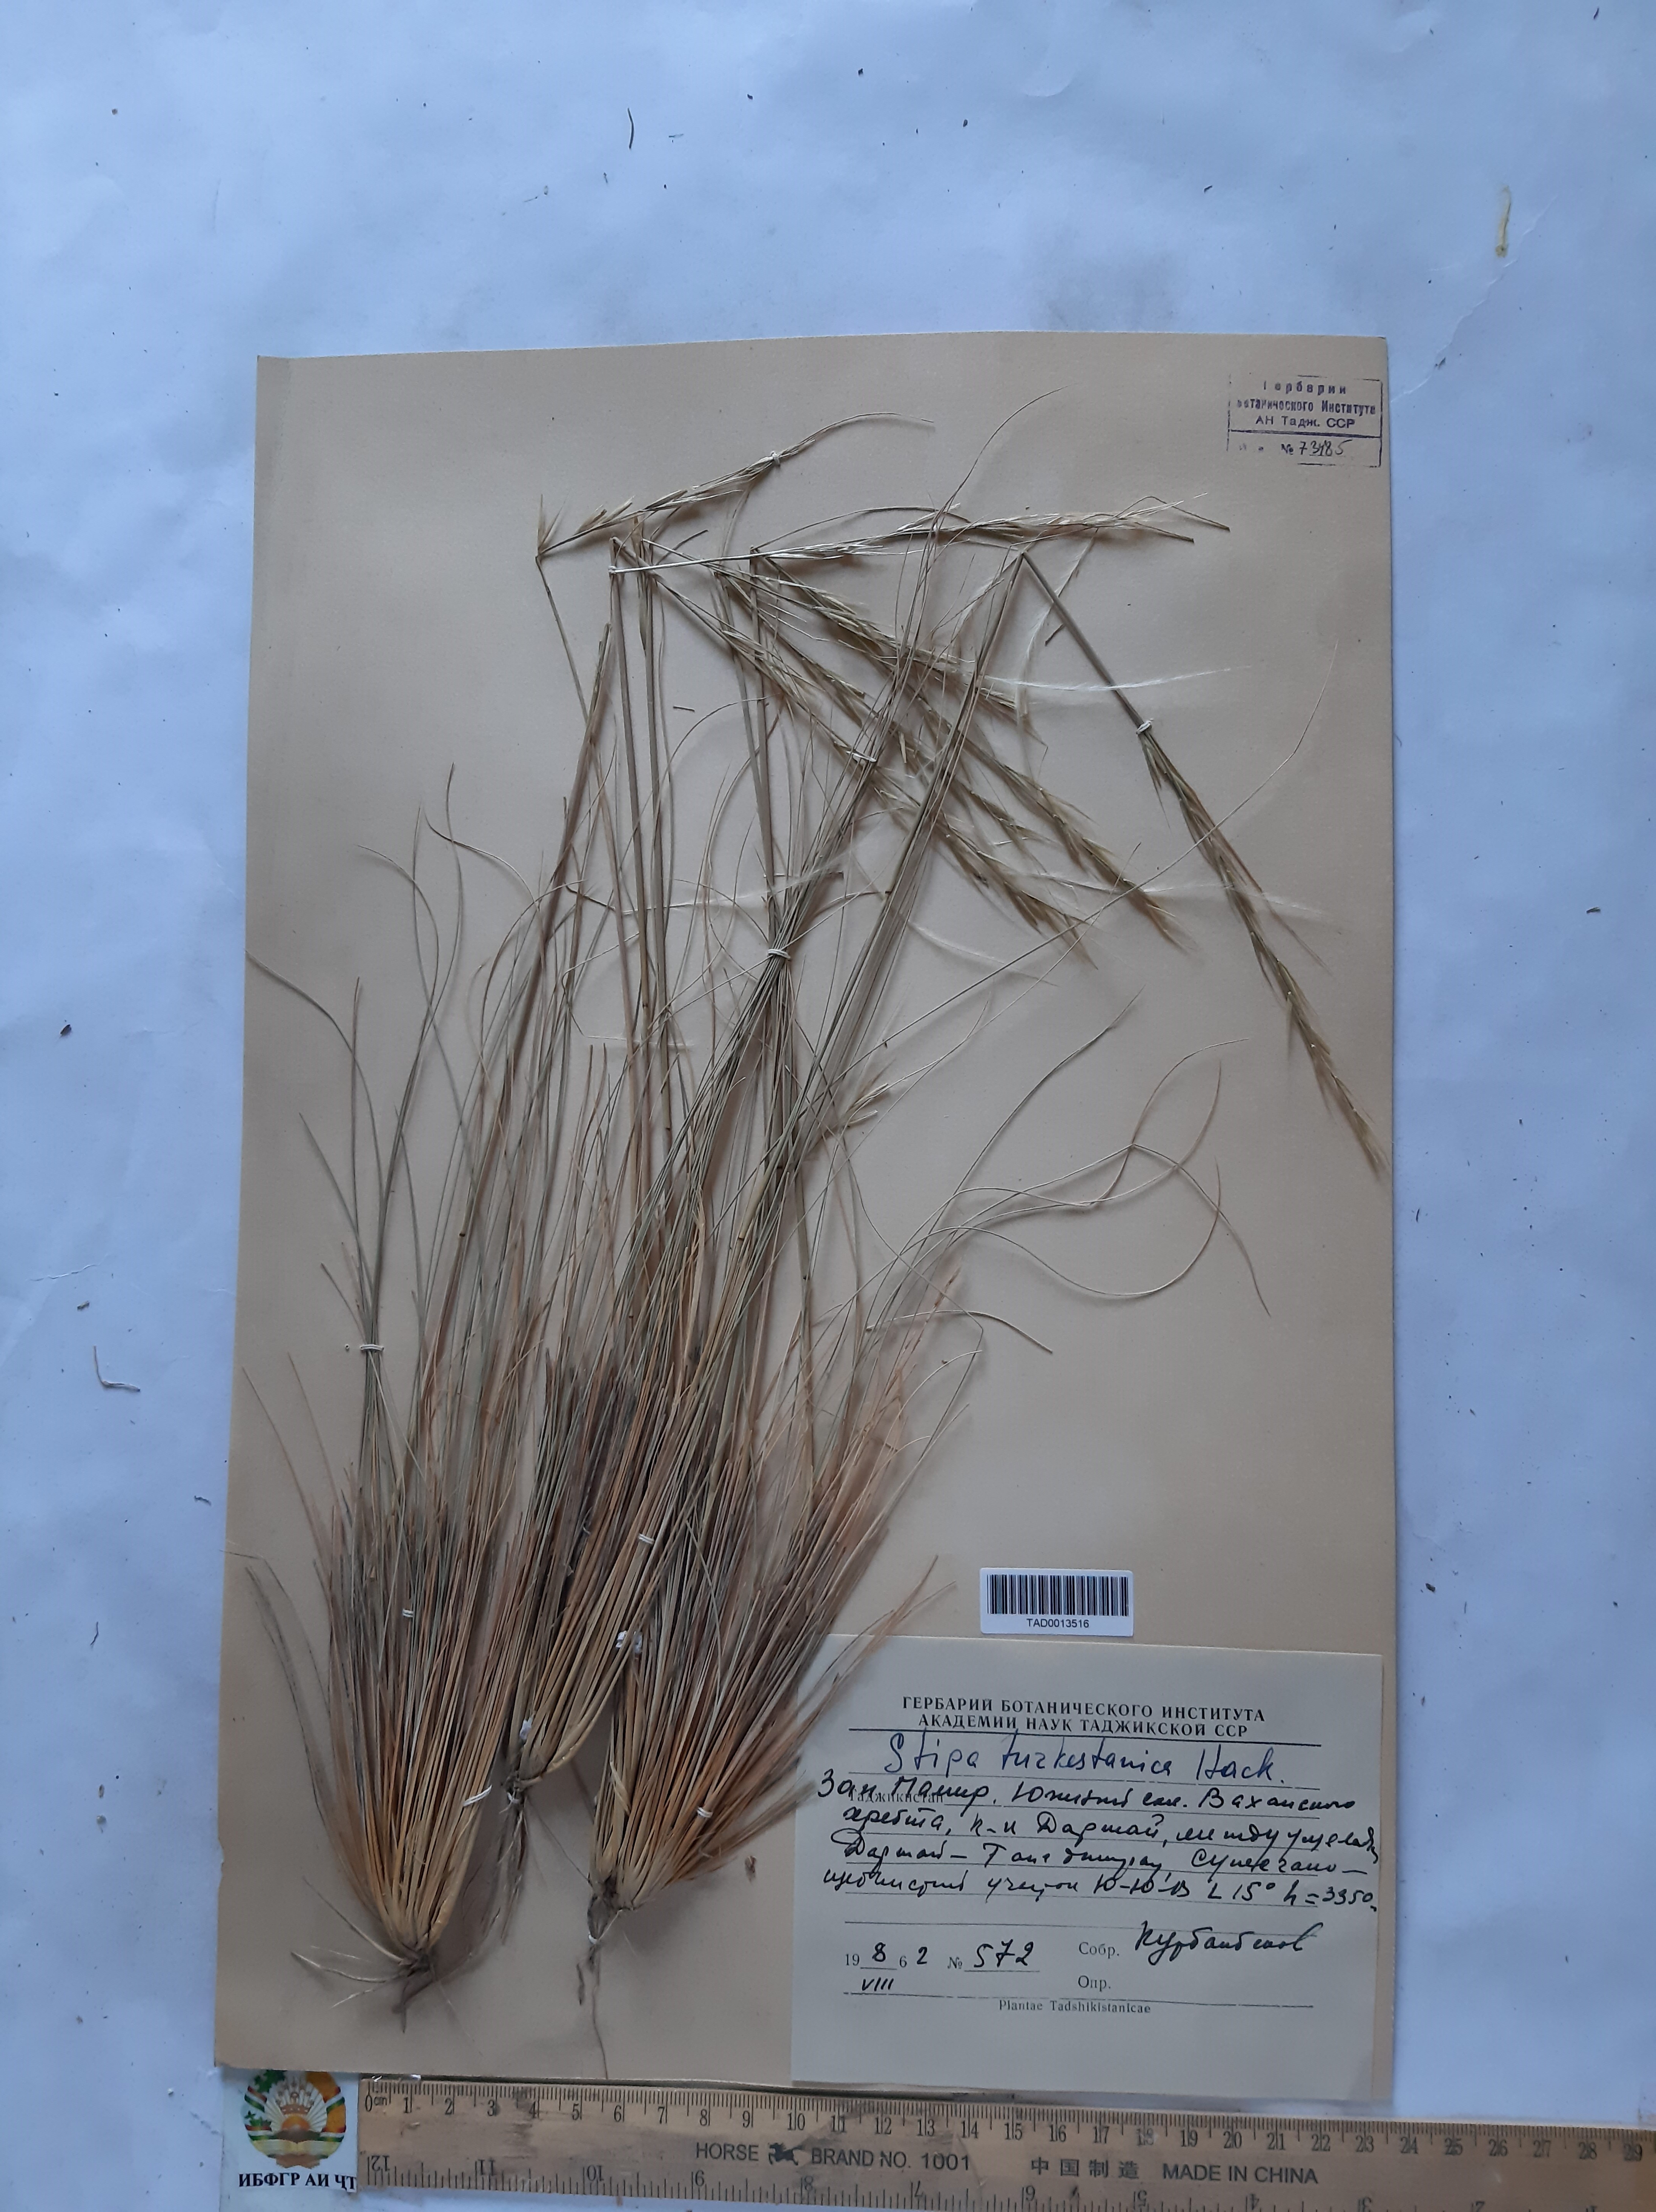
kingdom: Plantae
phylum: Tracheophyta
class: Liliopsida
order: Poales
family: Poaceae
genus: Stipa
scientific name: Stipa turkestanica
